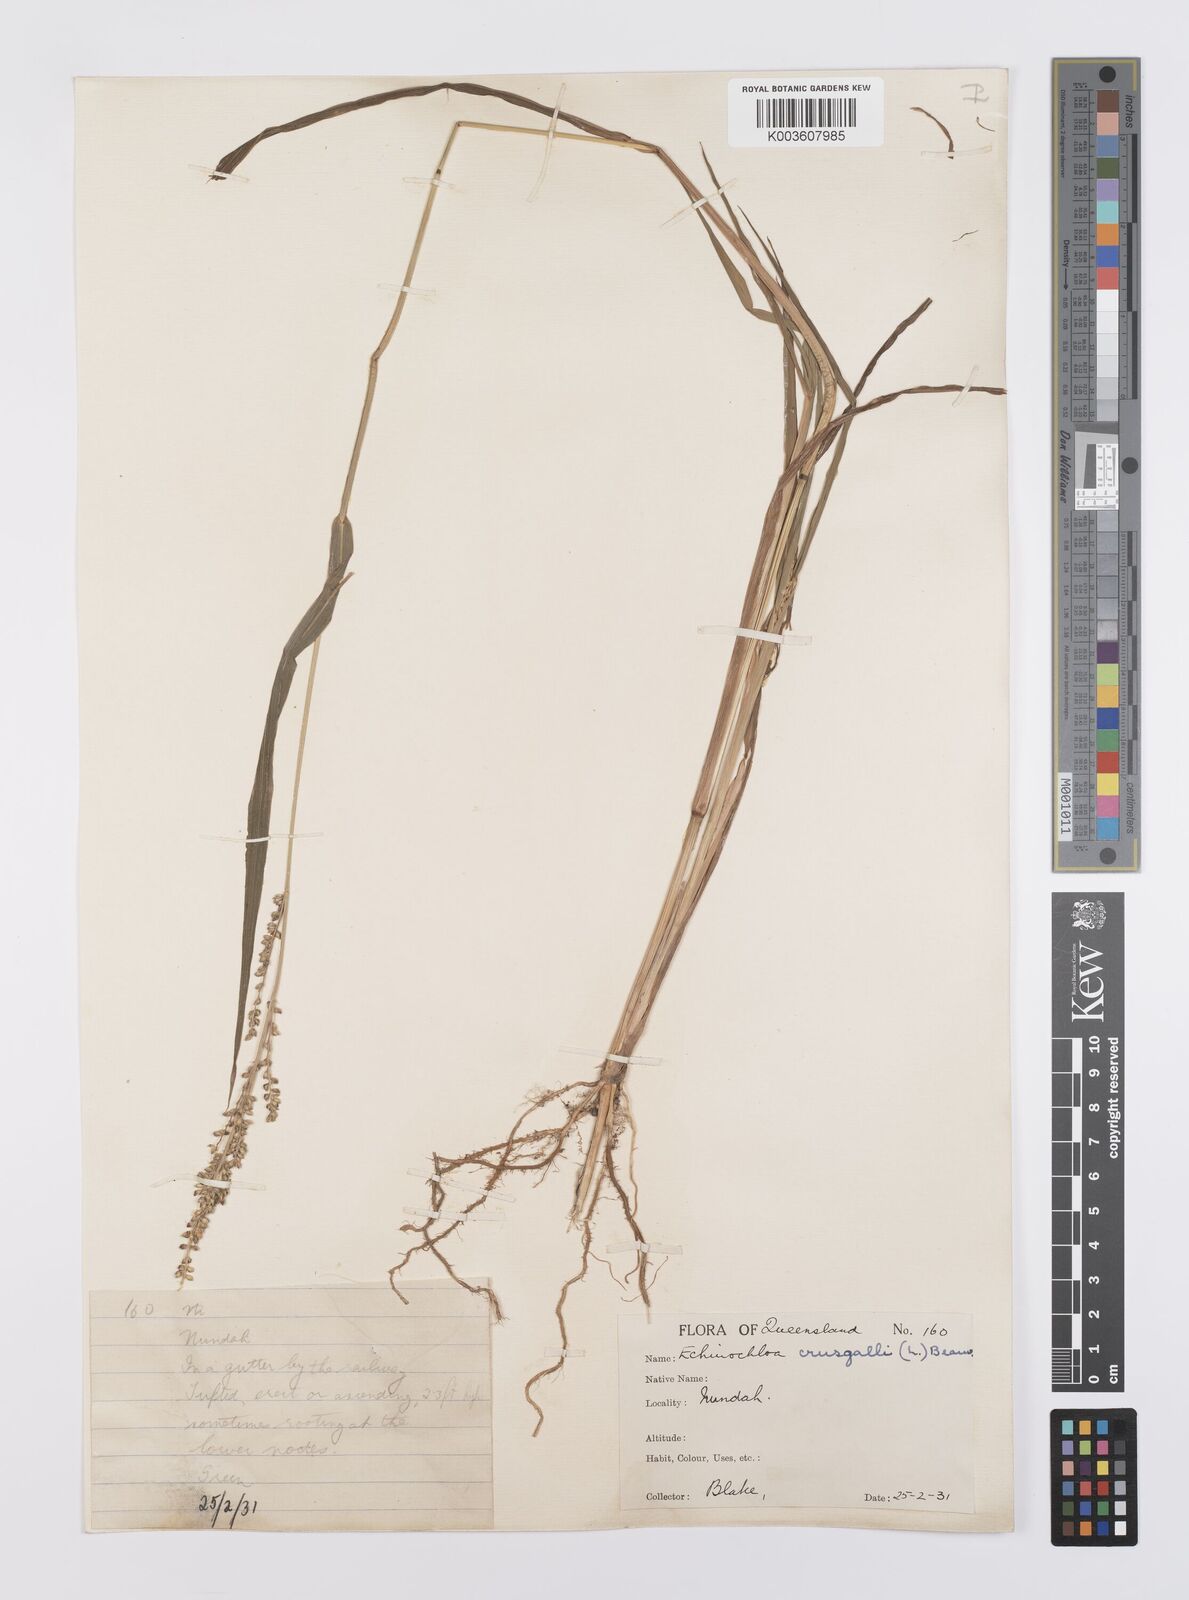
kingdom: Plantae
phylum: Tracheophyta
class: Liliopsida
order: Poales
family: Poaceae
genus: Echinochloa
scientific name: Echinochloa crus-galli
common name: Cockspur
